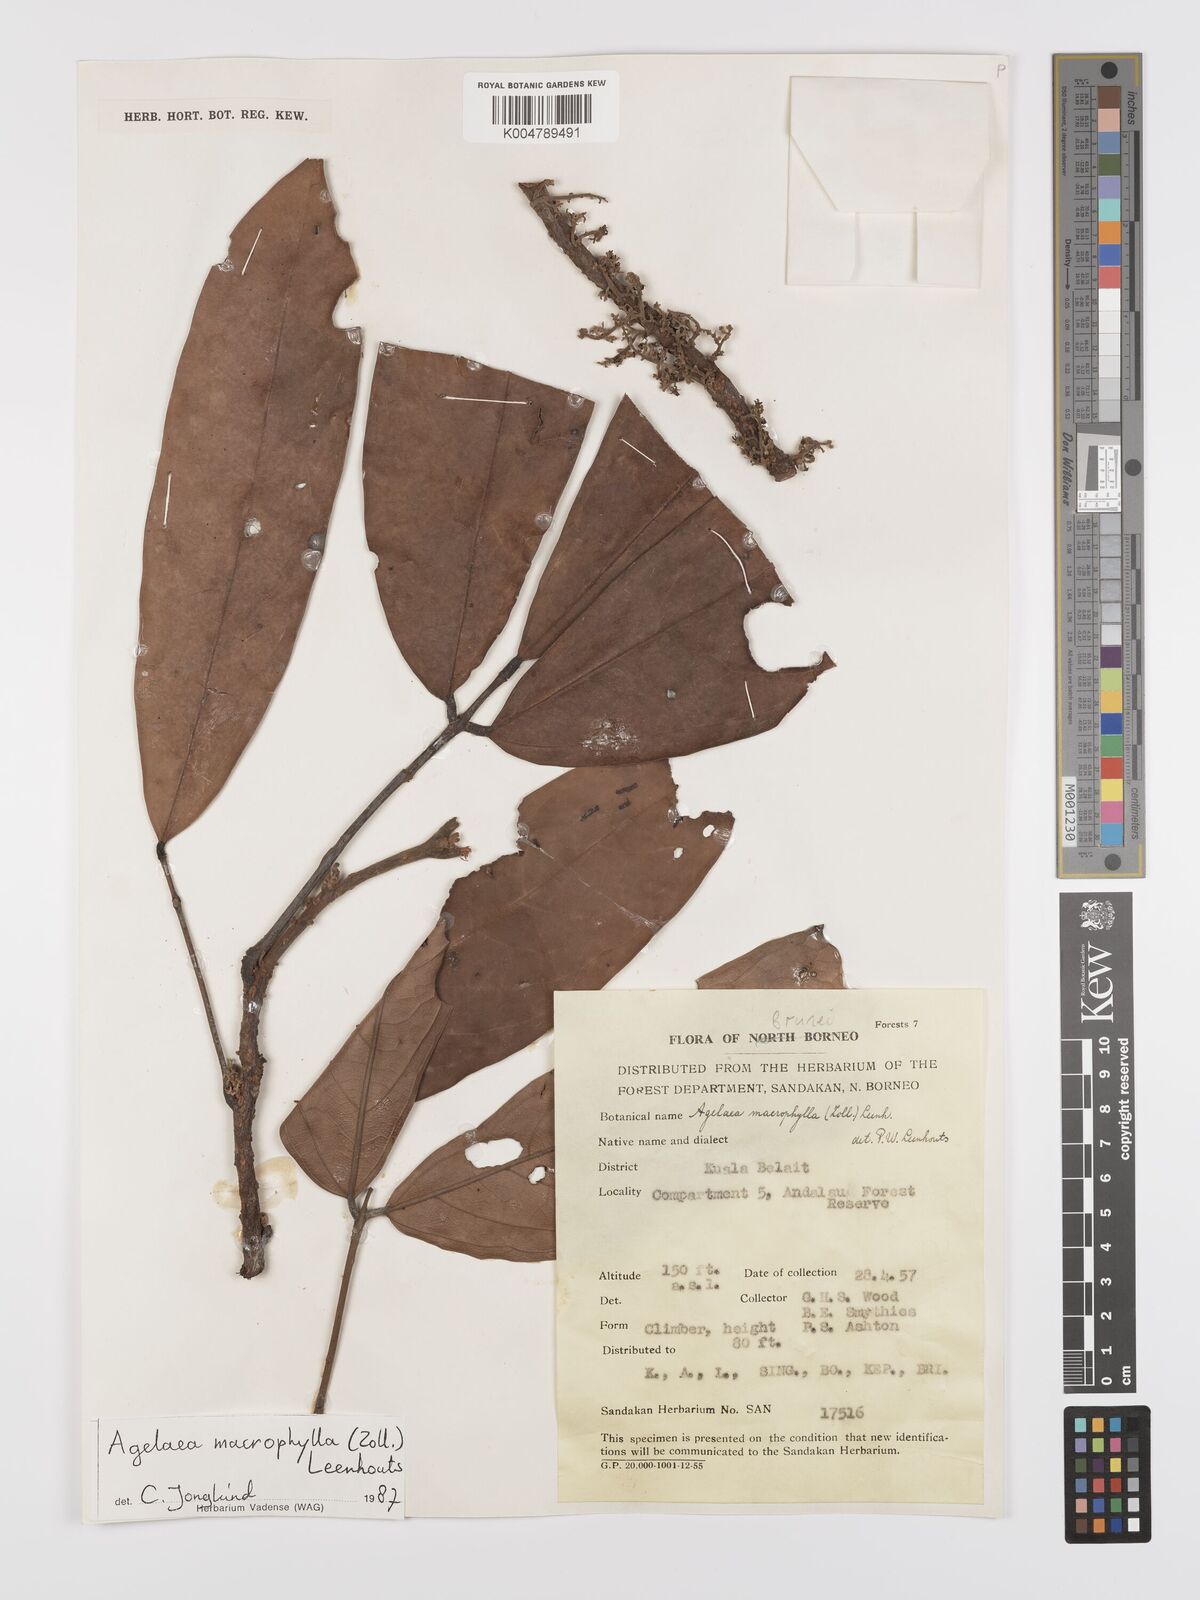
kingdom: Plantae
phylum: Tracheophyta
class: Magnoliopsida
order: Oxalidales
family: Connaraceae
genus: Agelaea
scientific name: Agelaea macrophylla
